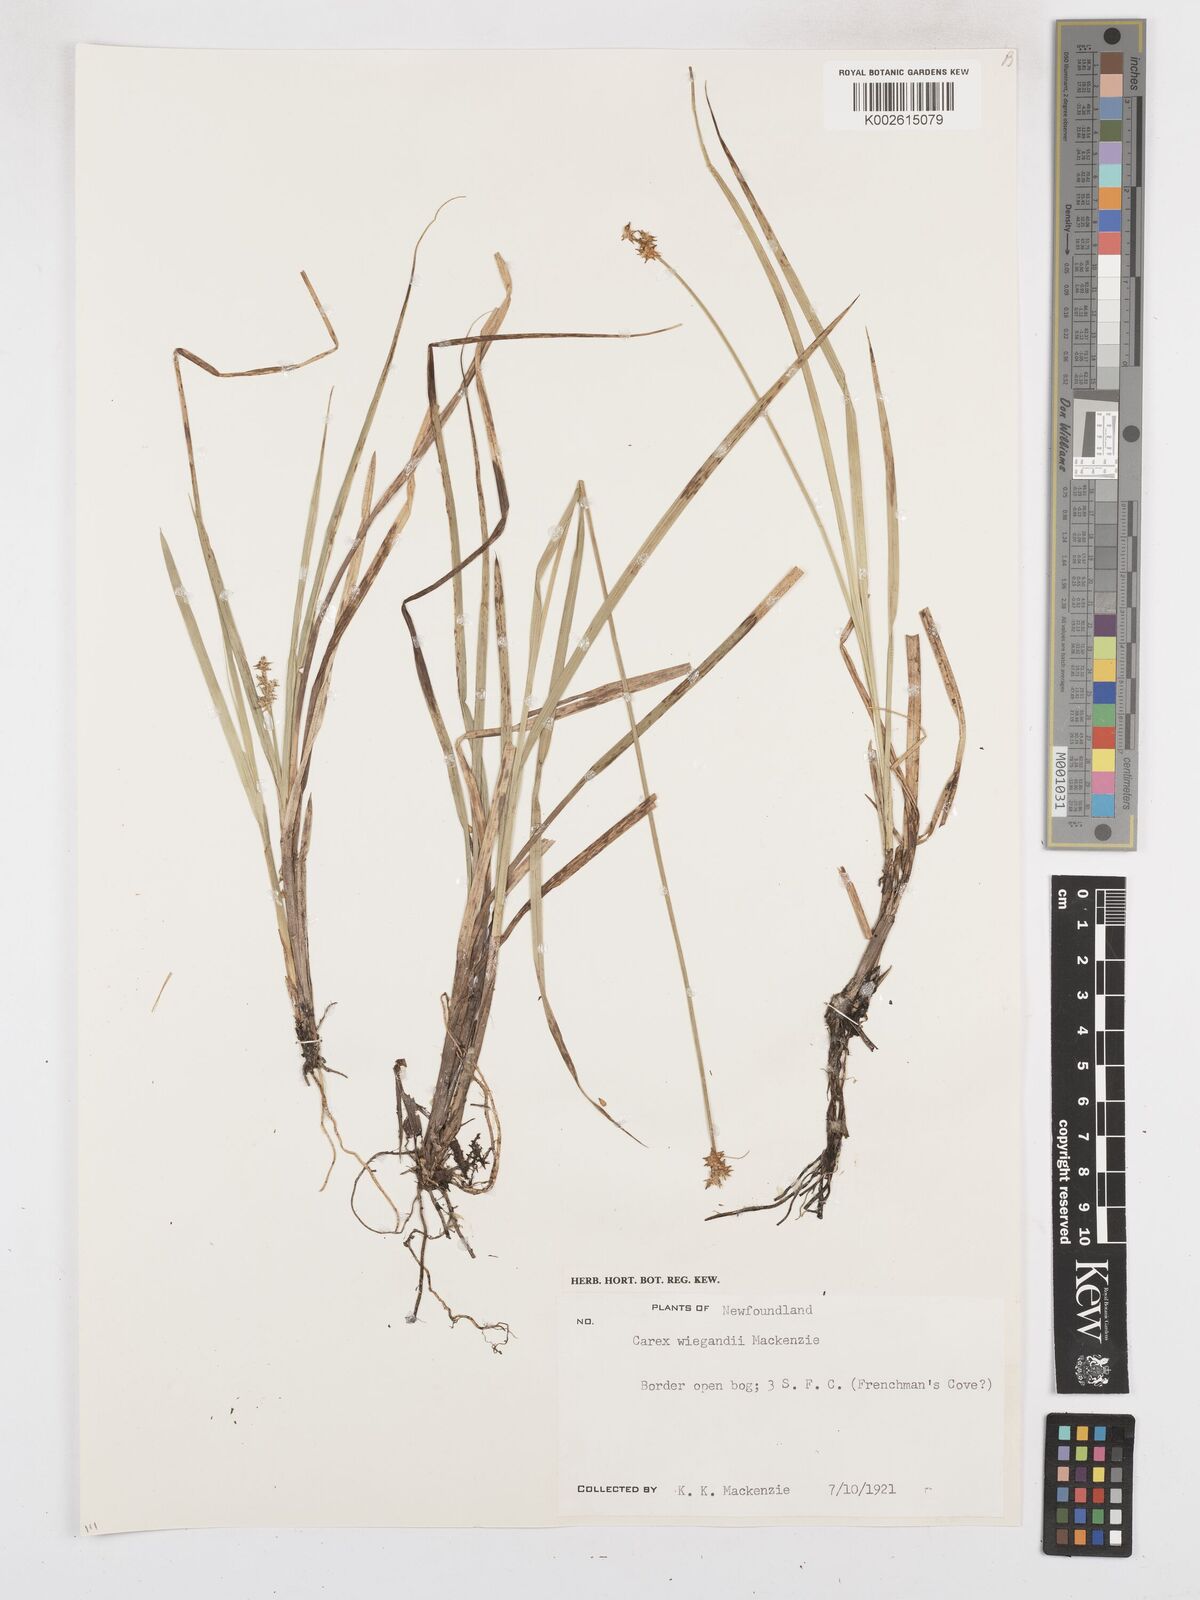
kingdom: Plantae
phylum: Tracheophyta
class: Liliopsida
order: Poales
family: Cyperaceae
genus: Carex
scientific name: Carex wiegandii
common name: Wiegand's sedge
